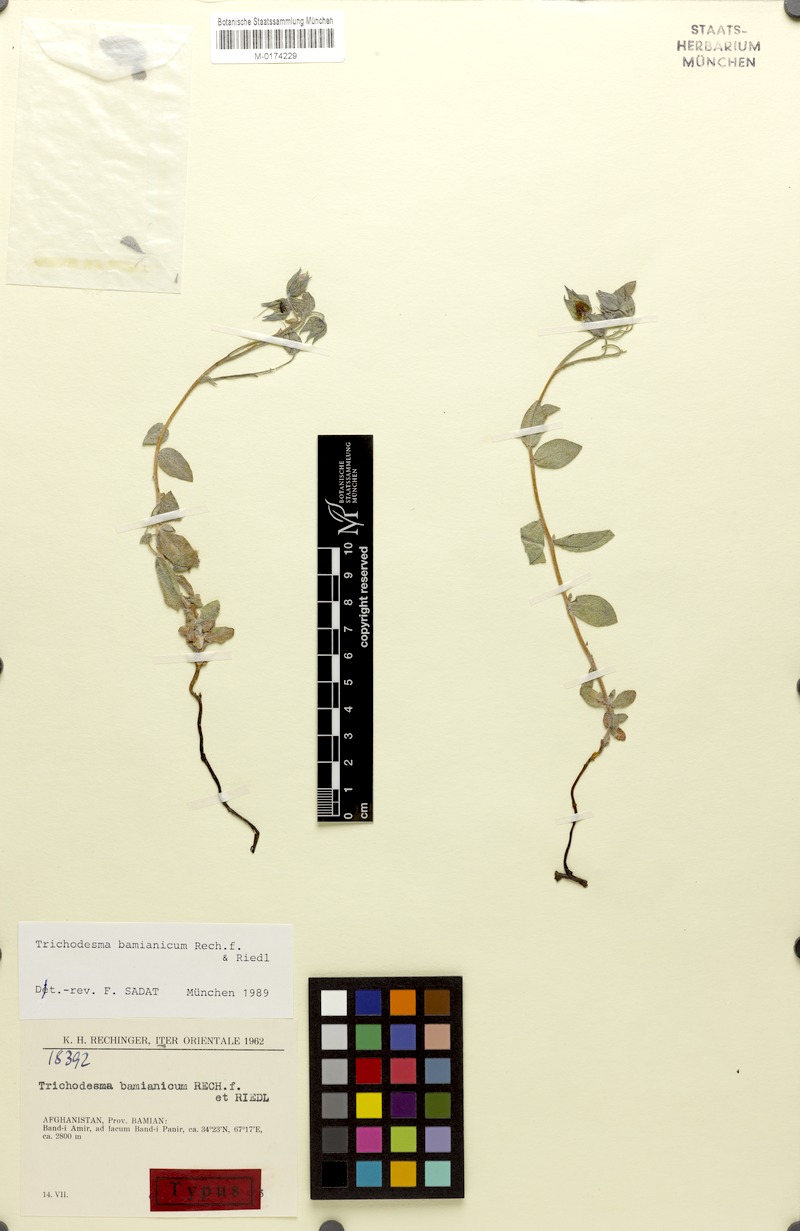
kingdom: Plantae
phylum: Tracheophyta
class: Magnoliopsida
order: Boraginales
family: Boraginaceae
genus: Trichodesma
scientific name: Trichodesma bamianicum
